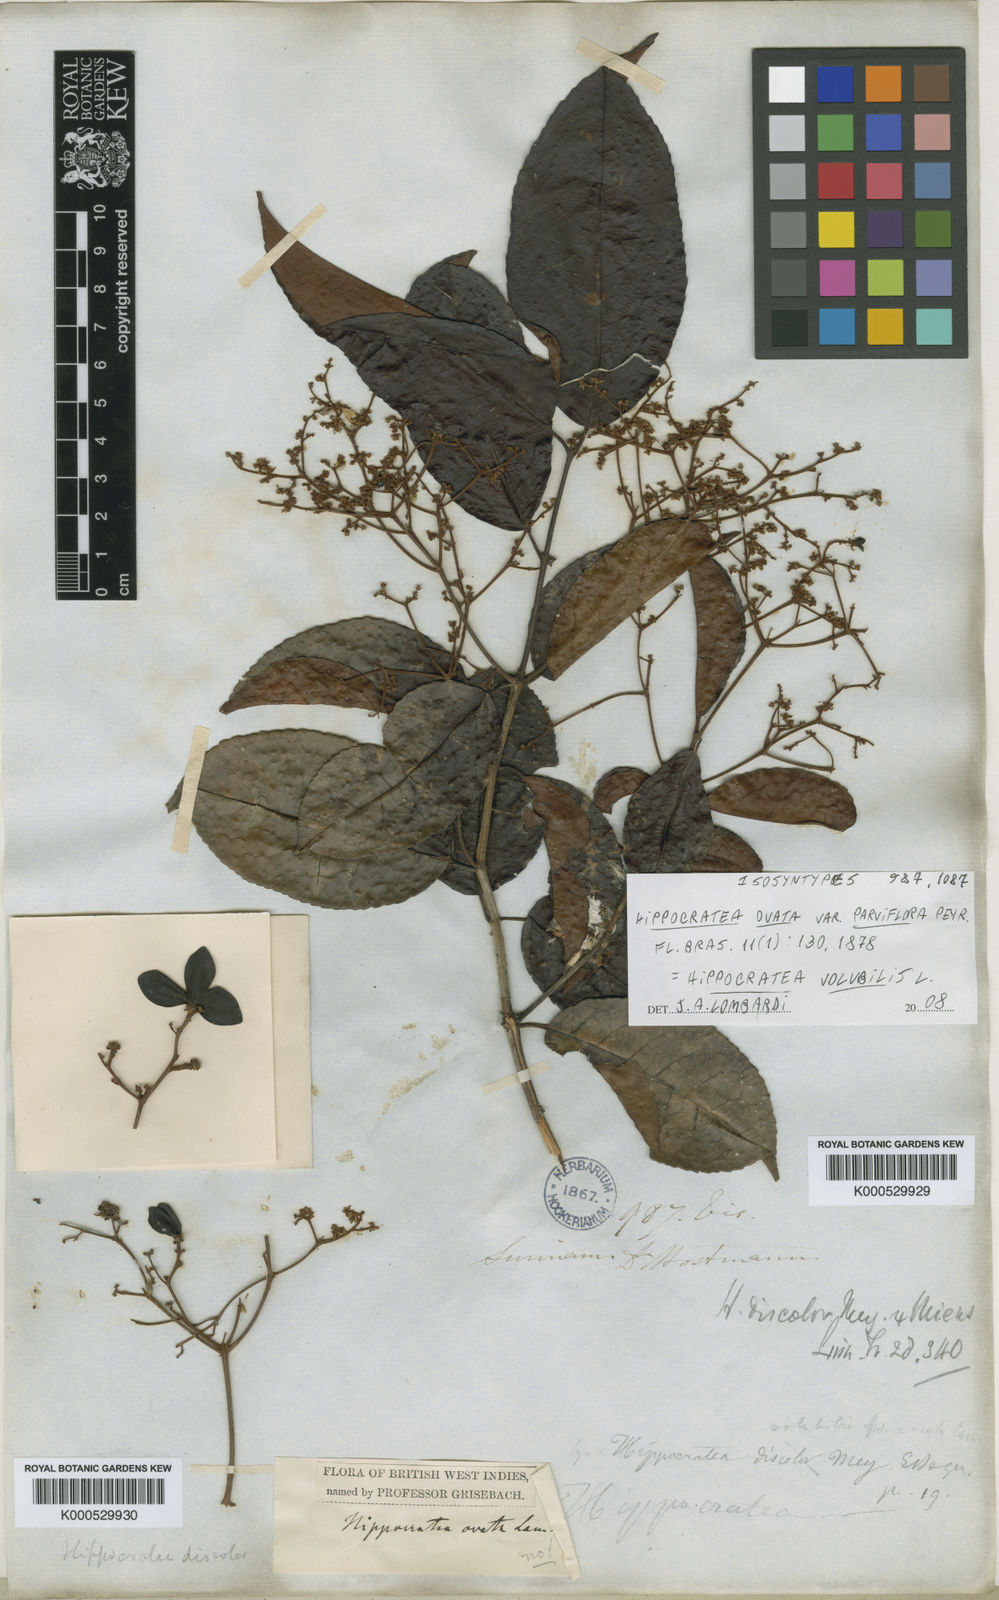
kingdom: Plantae
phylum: Tracheophyta
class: Magnoliopsida
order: Celastrales
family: Celastraceae
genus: Hippocratea
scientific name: Hippocratea volubilis
